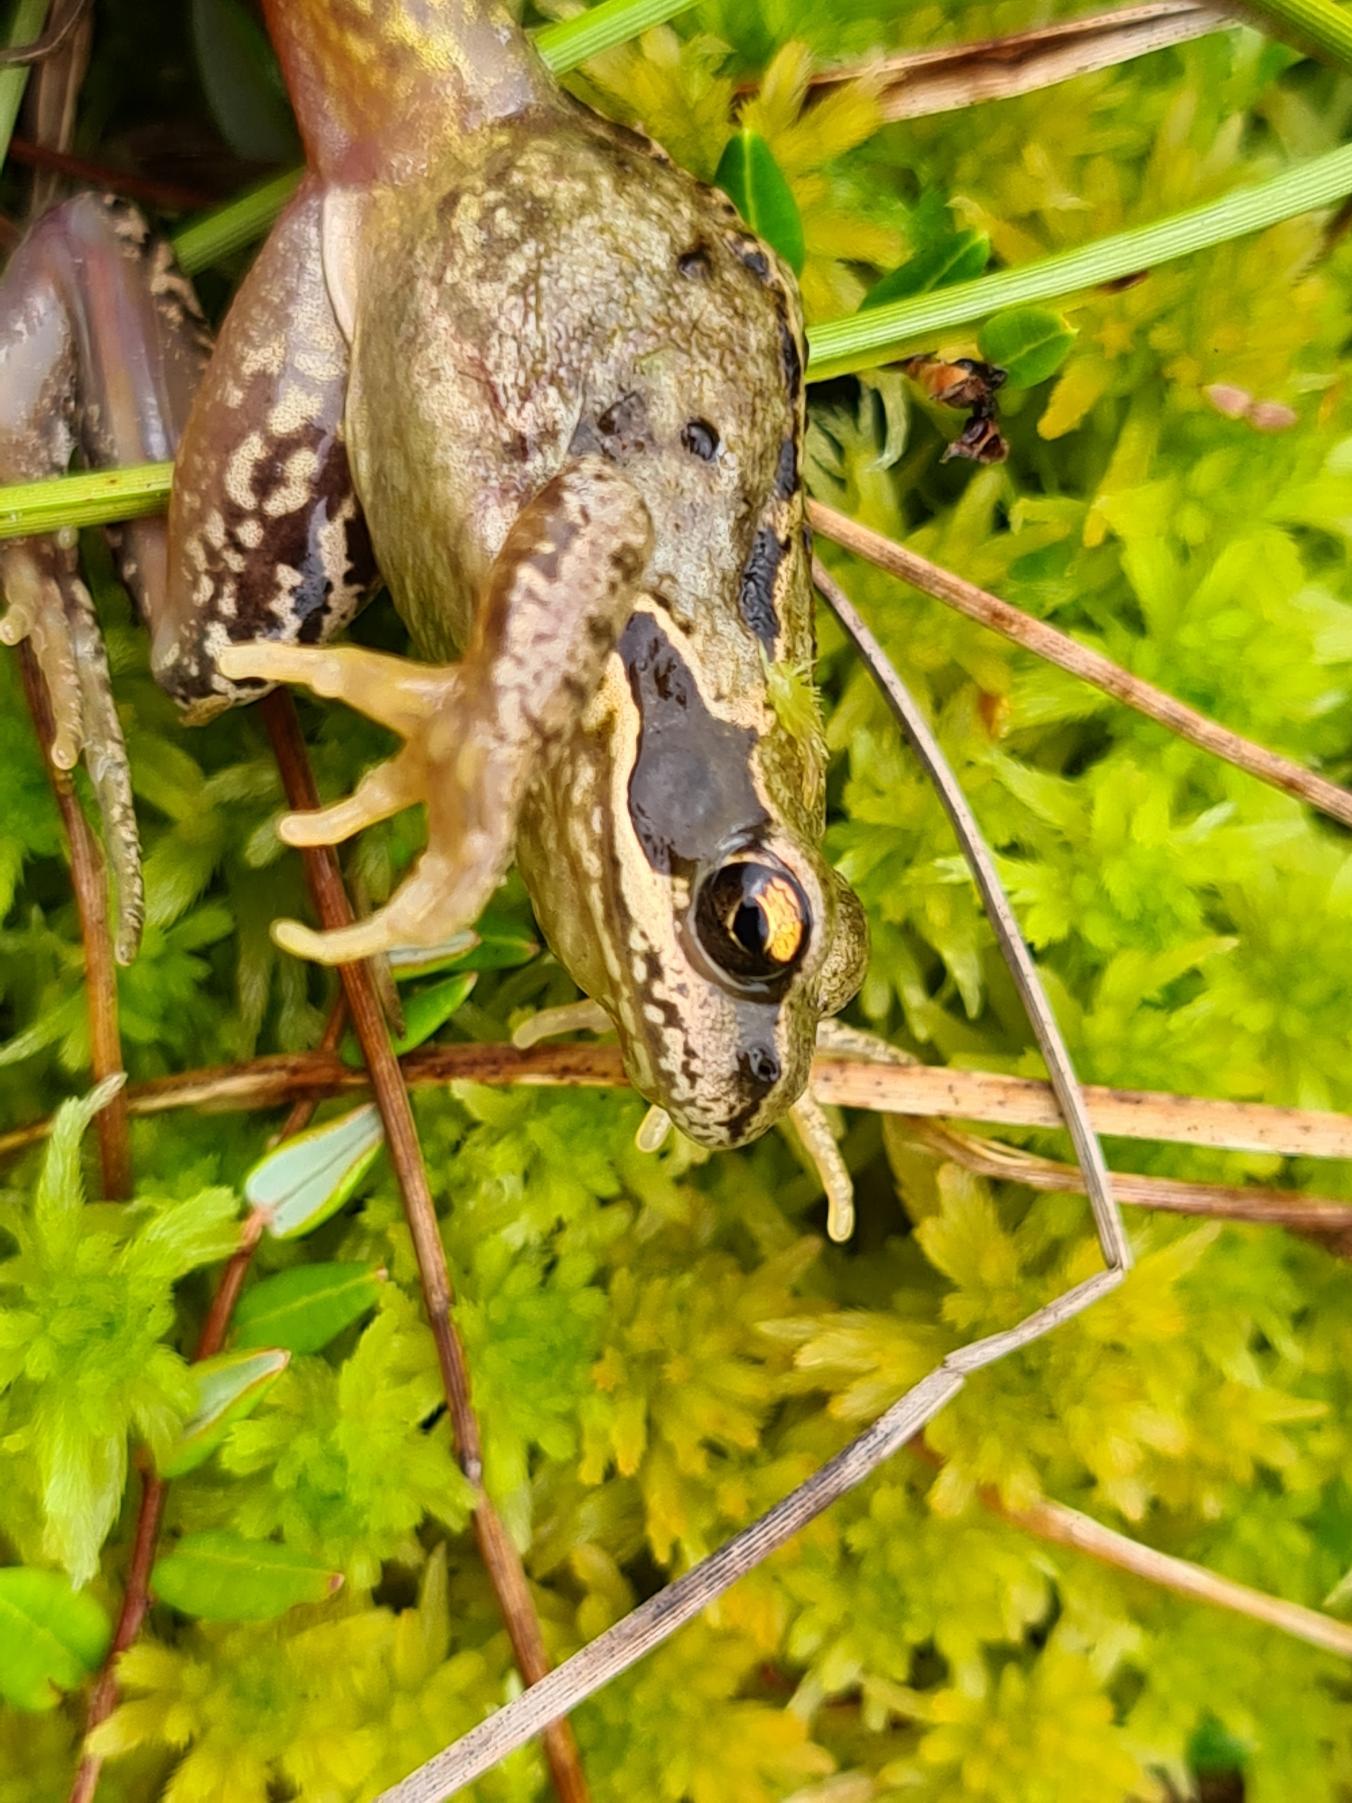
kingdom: Animalia
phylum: Chordata
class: Amphibia
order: Anura
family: Ranidae
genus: Rana
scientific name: Rana temporaria
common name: Butsnudet frø
